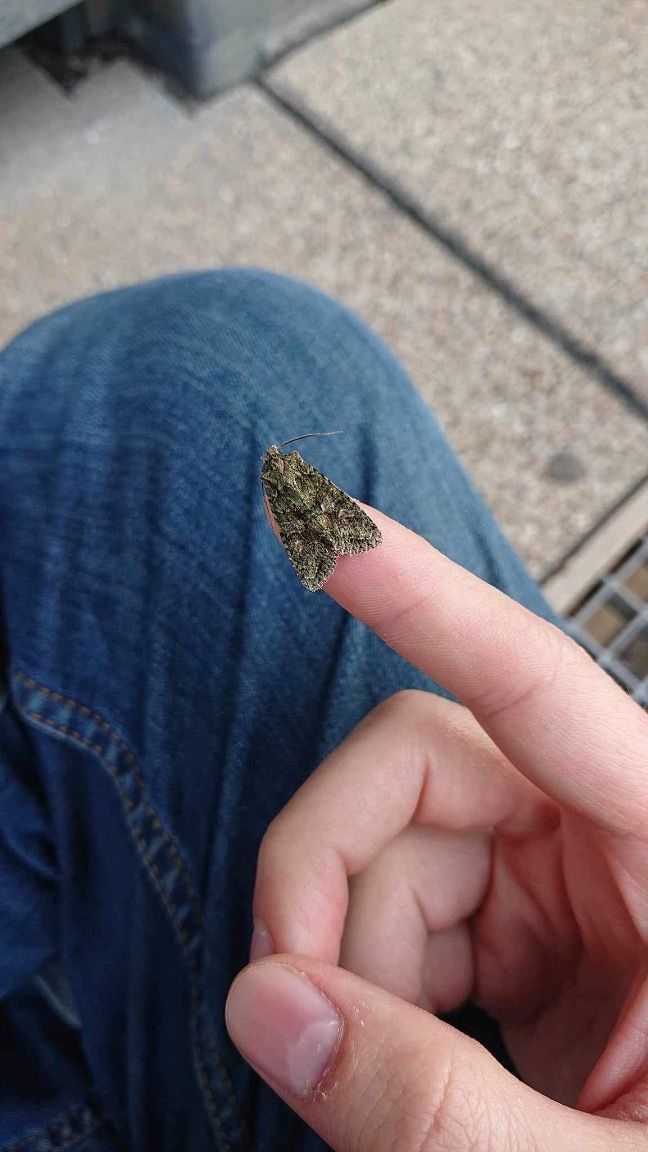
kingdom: Animalia
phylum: Arthropoda
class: Insecta
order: Lepidoptera
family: Noctuidae
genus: Dryobotodes
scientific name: Dryobotodes eremita
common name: Eremitugle
